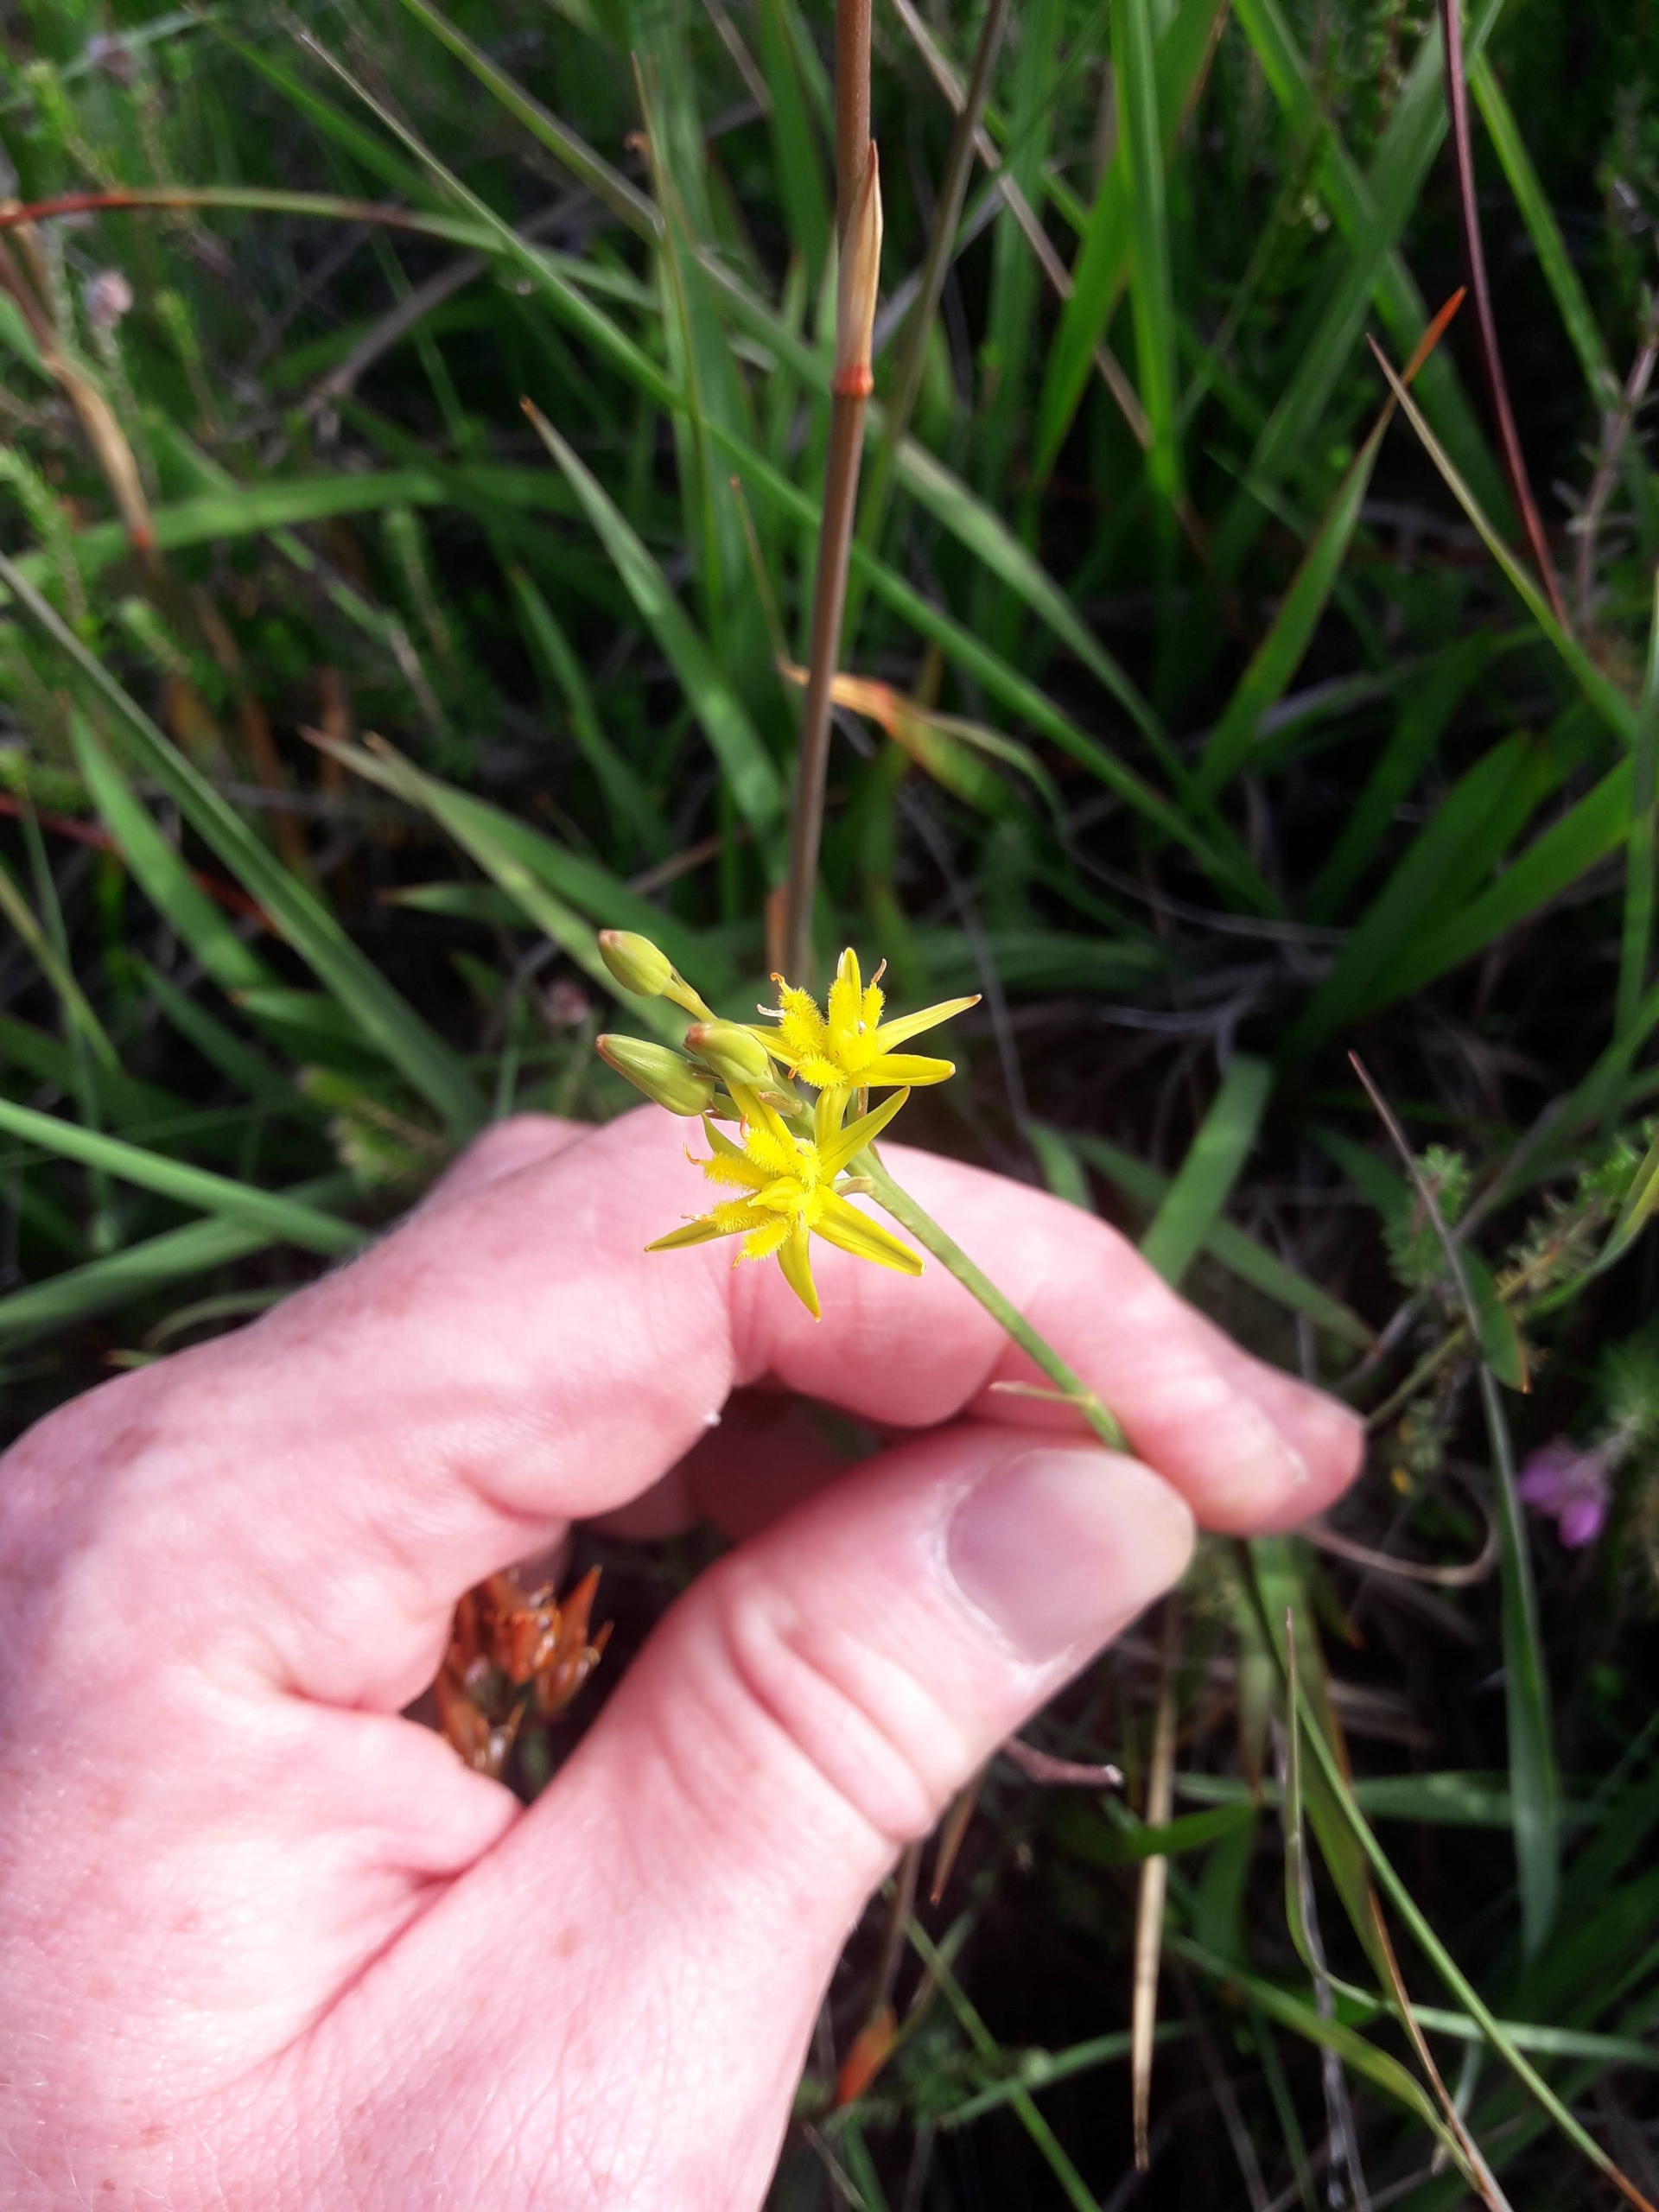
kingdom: Plantae
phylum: Tracheophyta
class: Liliopsida
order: Dioscoreales
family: Nartheciaceae
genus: Narthecium
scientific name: Narthecium ossifragum
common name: Benbræk
